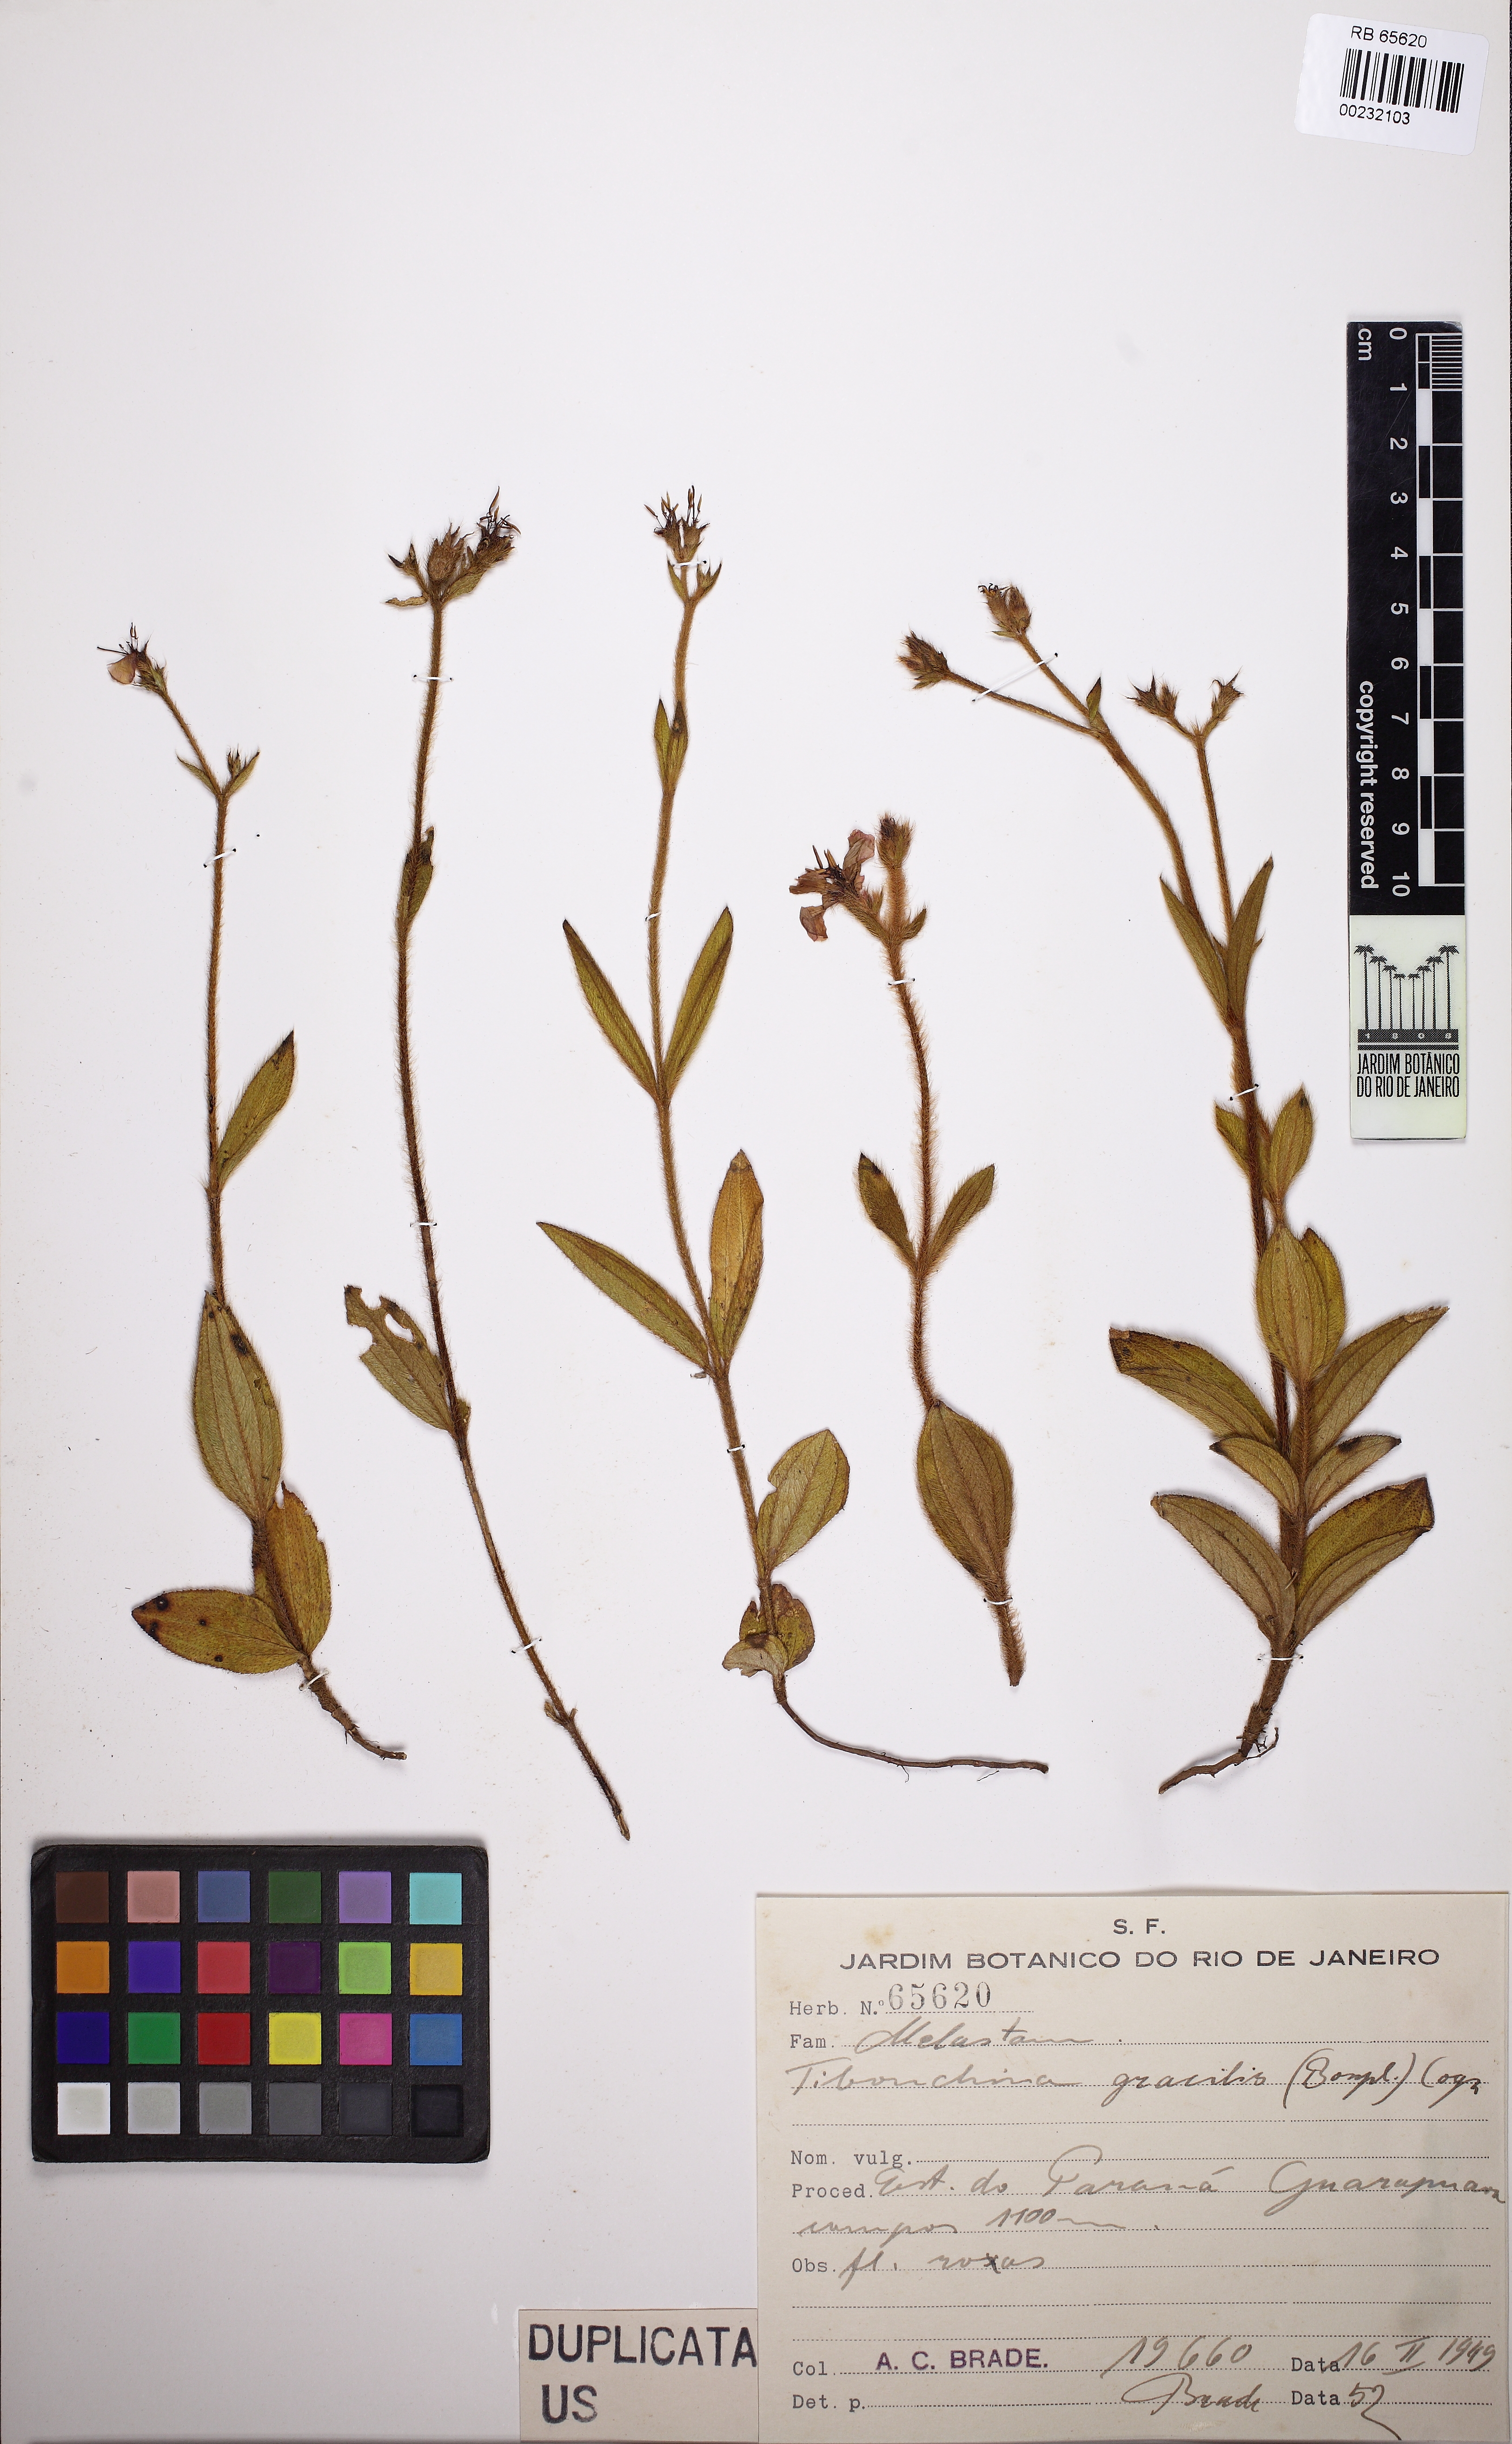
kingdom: Plantae
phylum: Tracheophyta
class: Magnoliopsida
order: Myrtales
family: Melastomataceae
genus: Chaetogastra
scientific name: Chaetogastra gracilis
